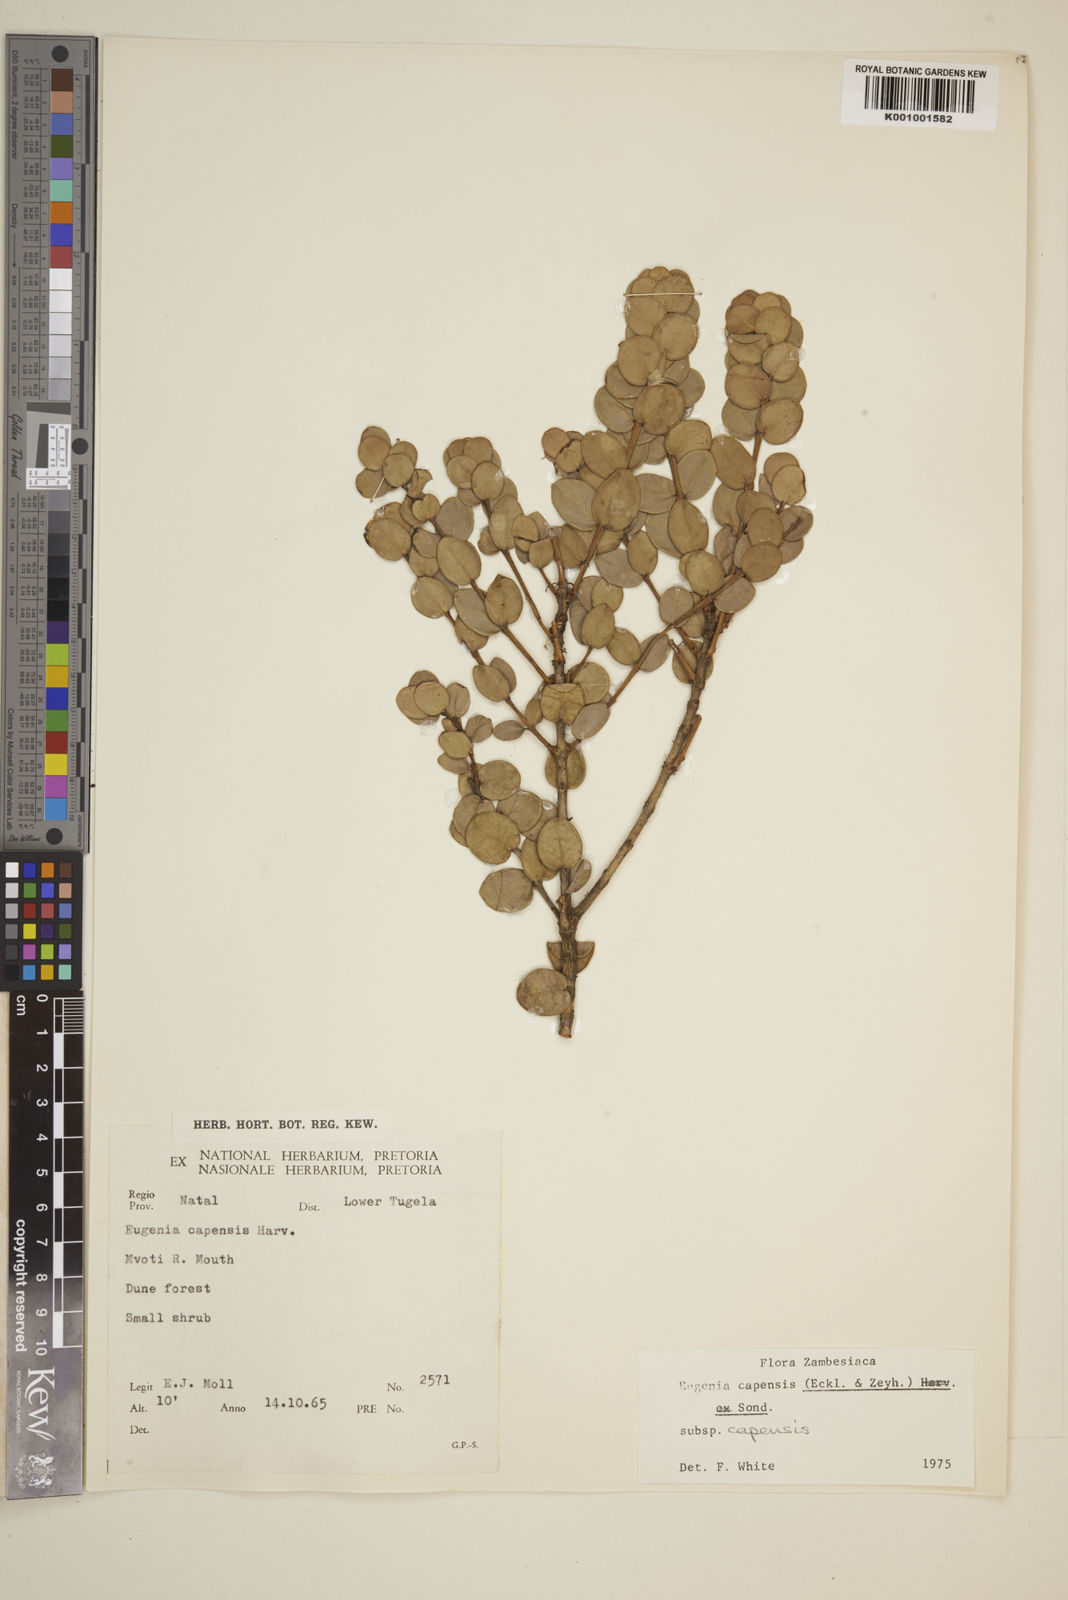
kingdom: Plantae
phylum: Tracheophyta
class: Magnoliopsida
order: Myrtales
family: Myrtaceae
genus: Eugenia
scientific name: Eugenia capensis
